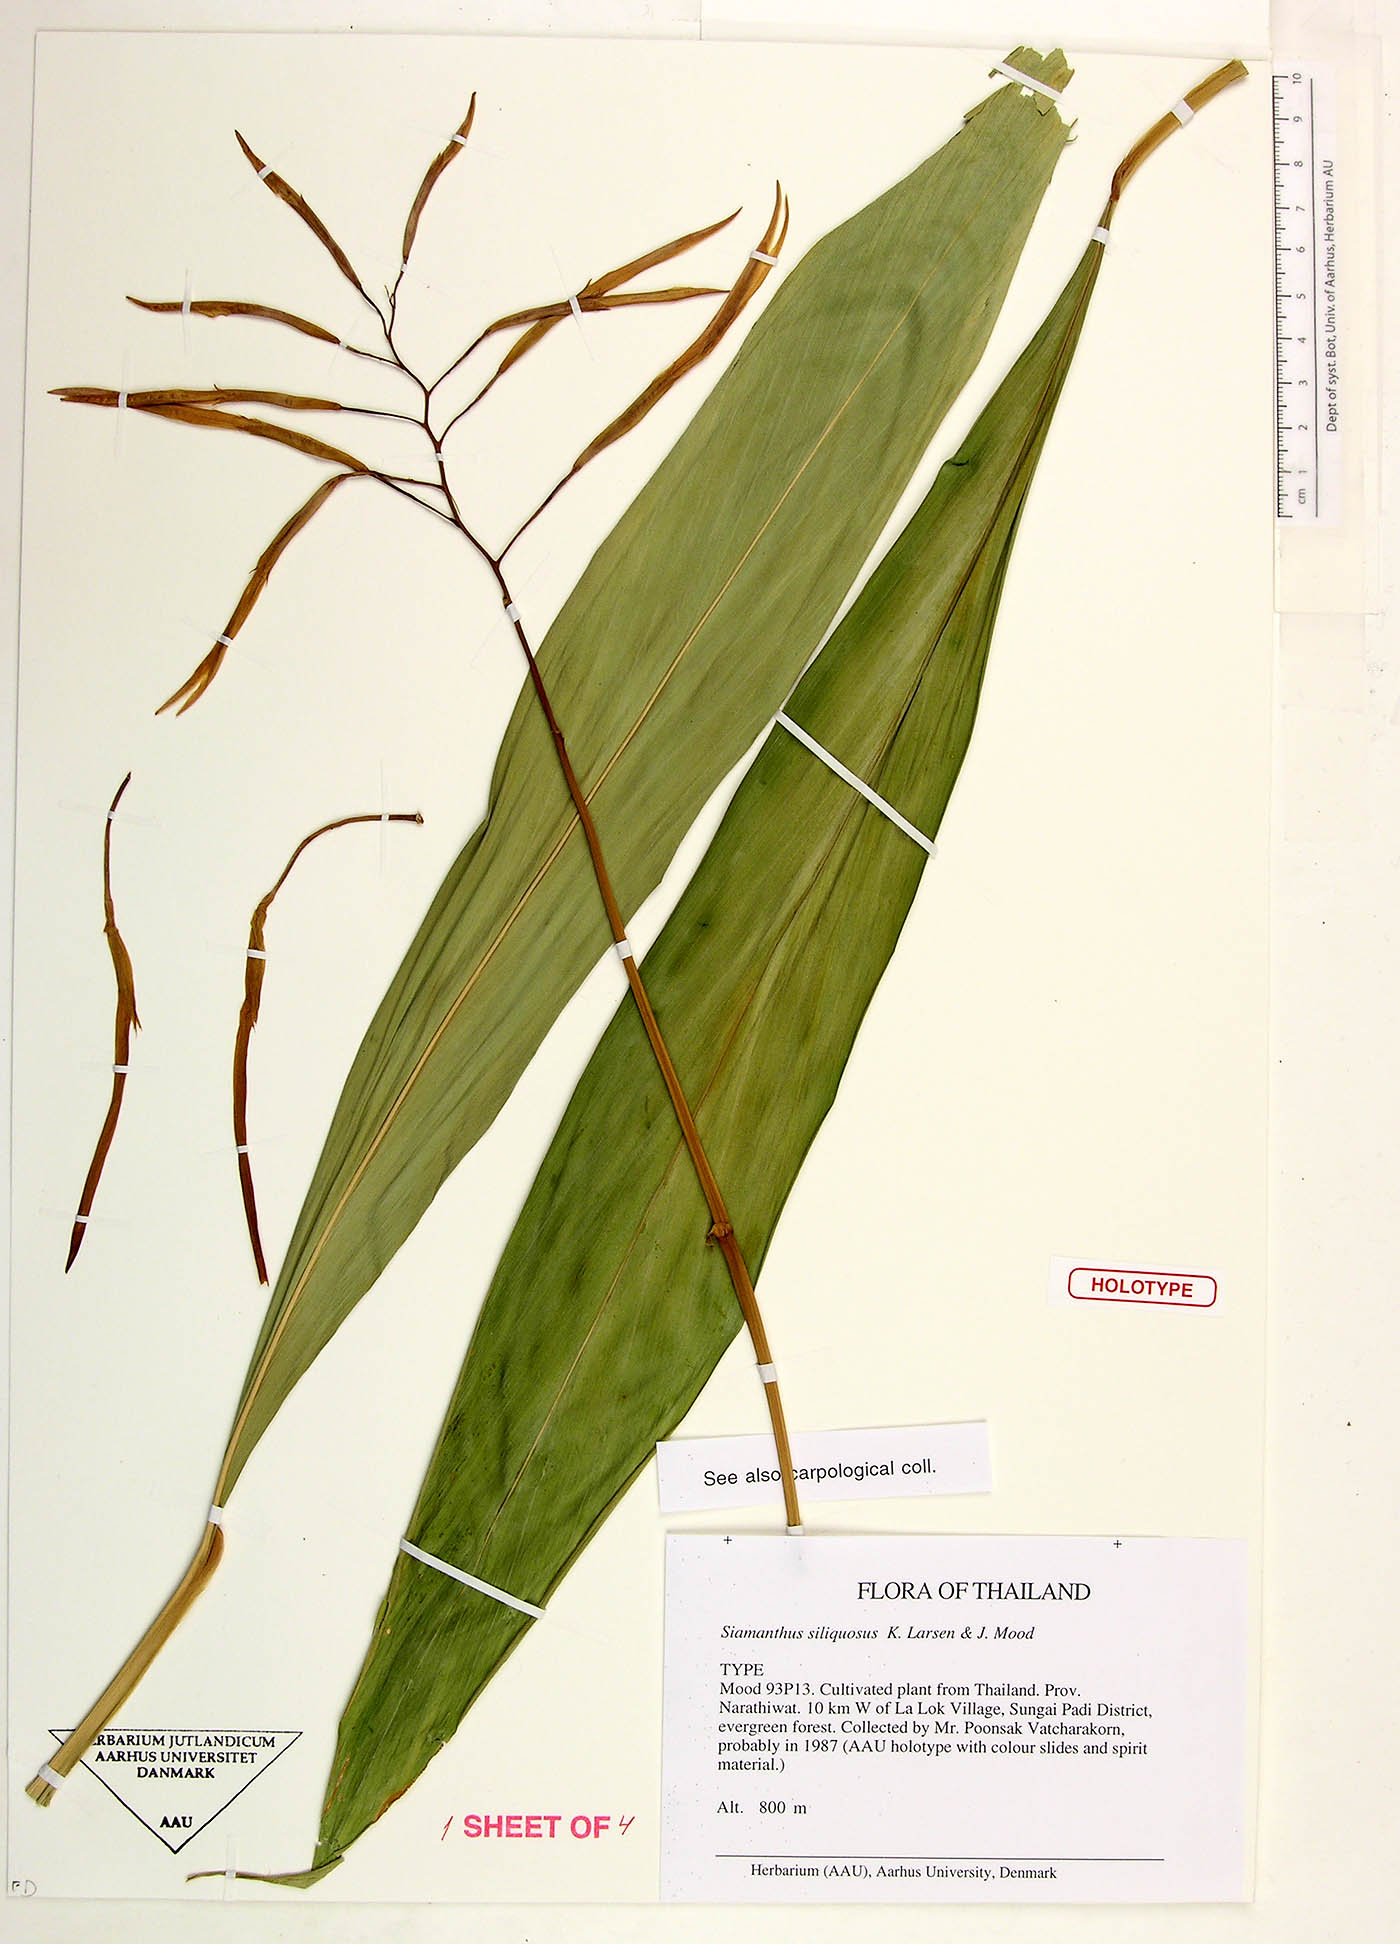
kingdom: Plantae
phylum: Tracheophyta
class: Liliopsida
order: Zingiberales
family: Zingiberaceae
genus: Siamanthus
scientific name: Siamanthus siliquosus
